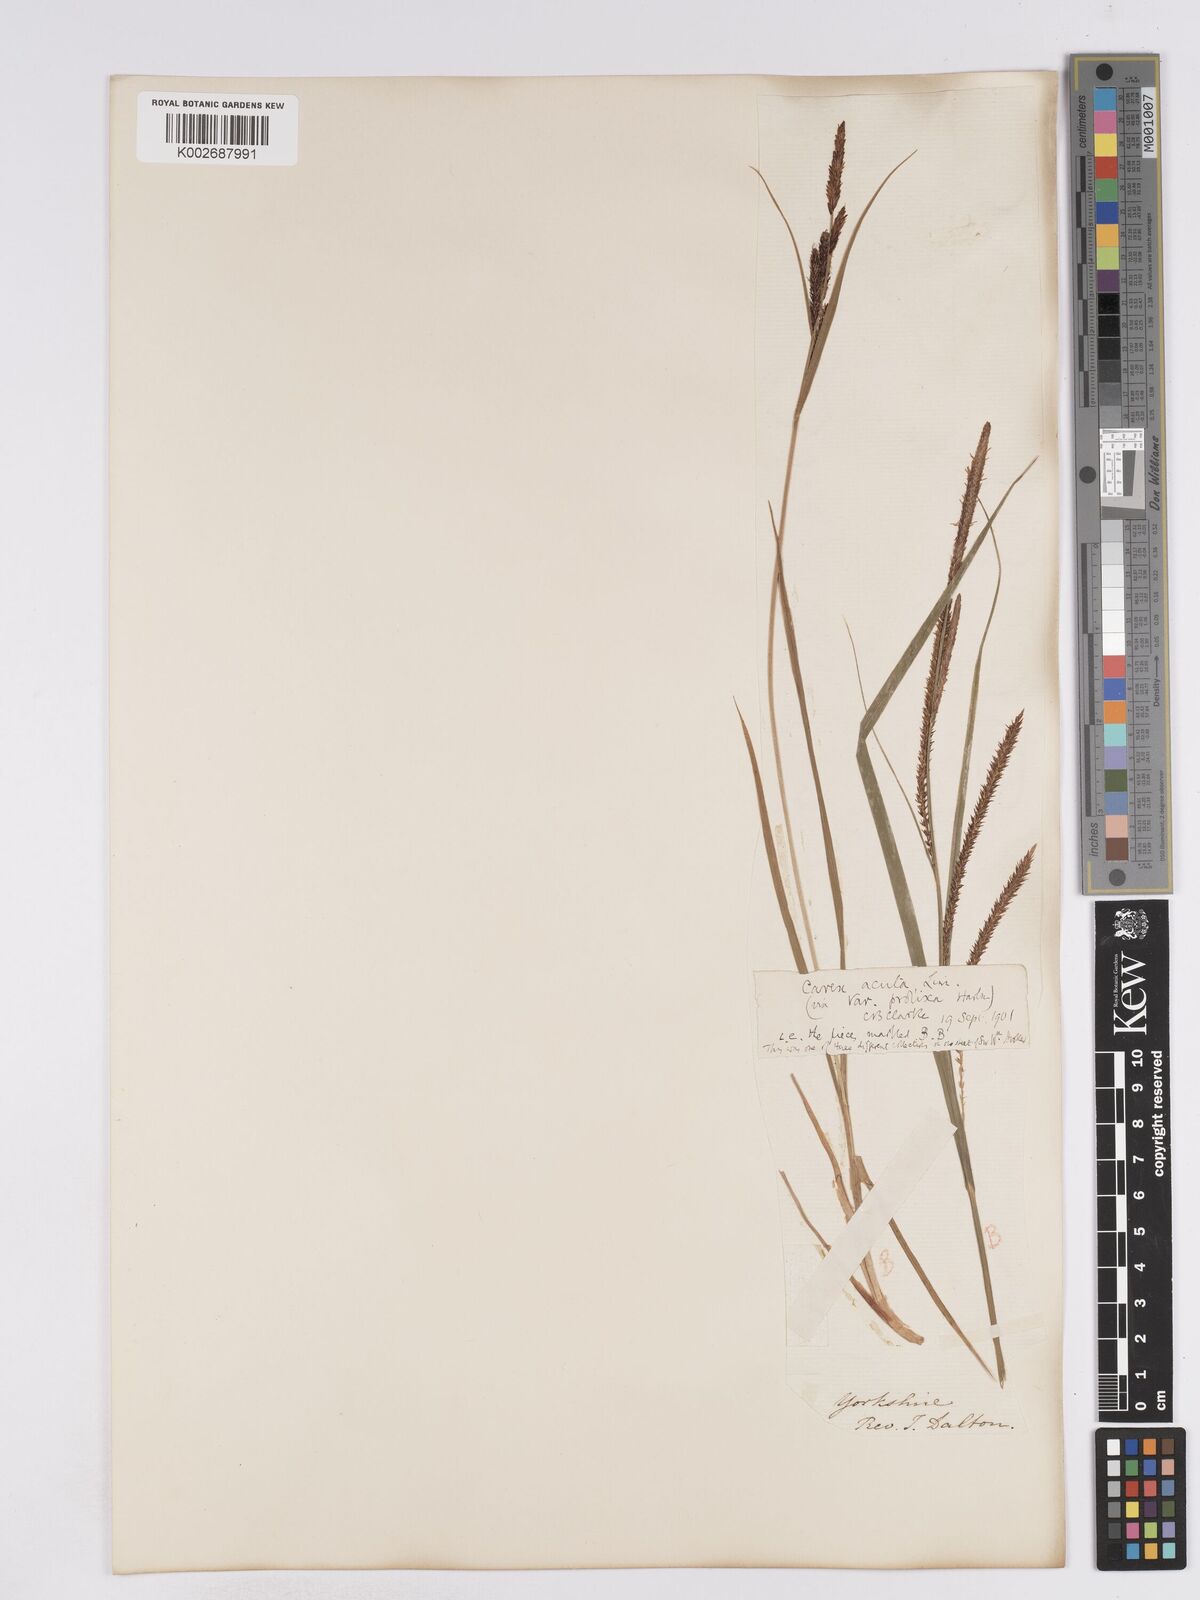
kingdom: Plantae
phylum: Tracheophyta
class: Liliopsida
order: Poales
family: Cyperaceae
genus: Carex
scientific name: Carex acuta
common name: Slender tufted-sedge
